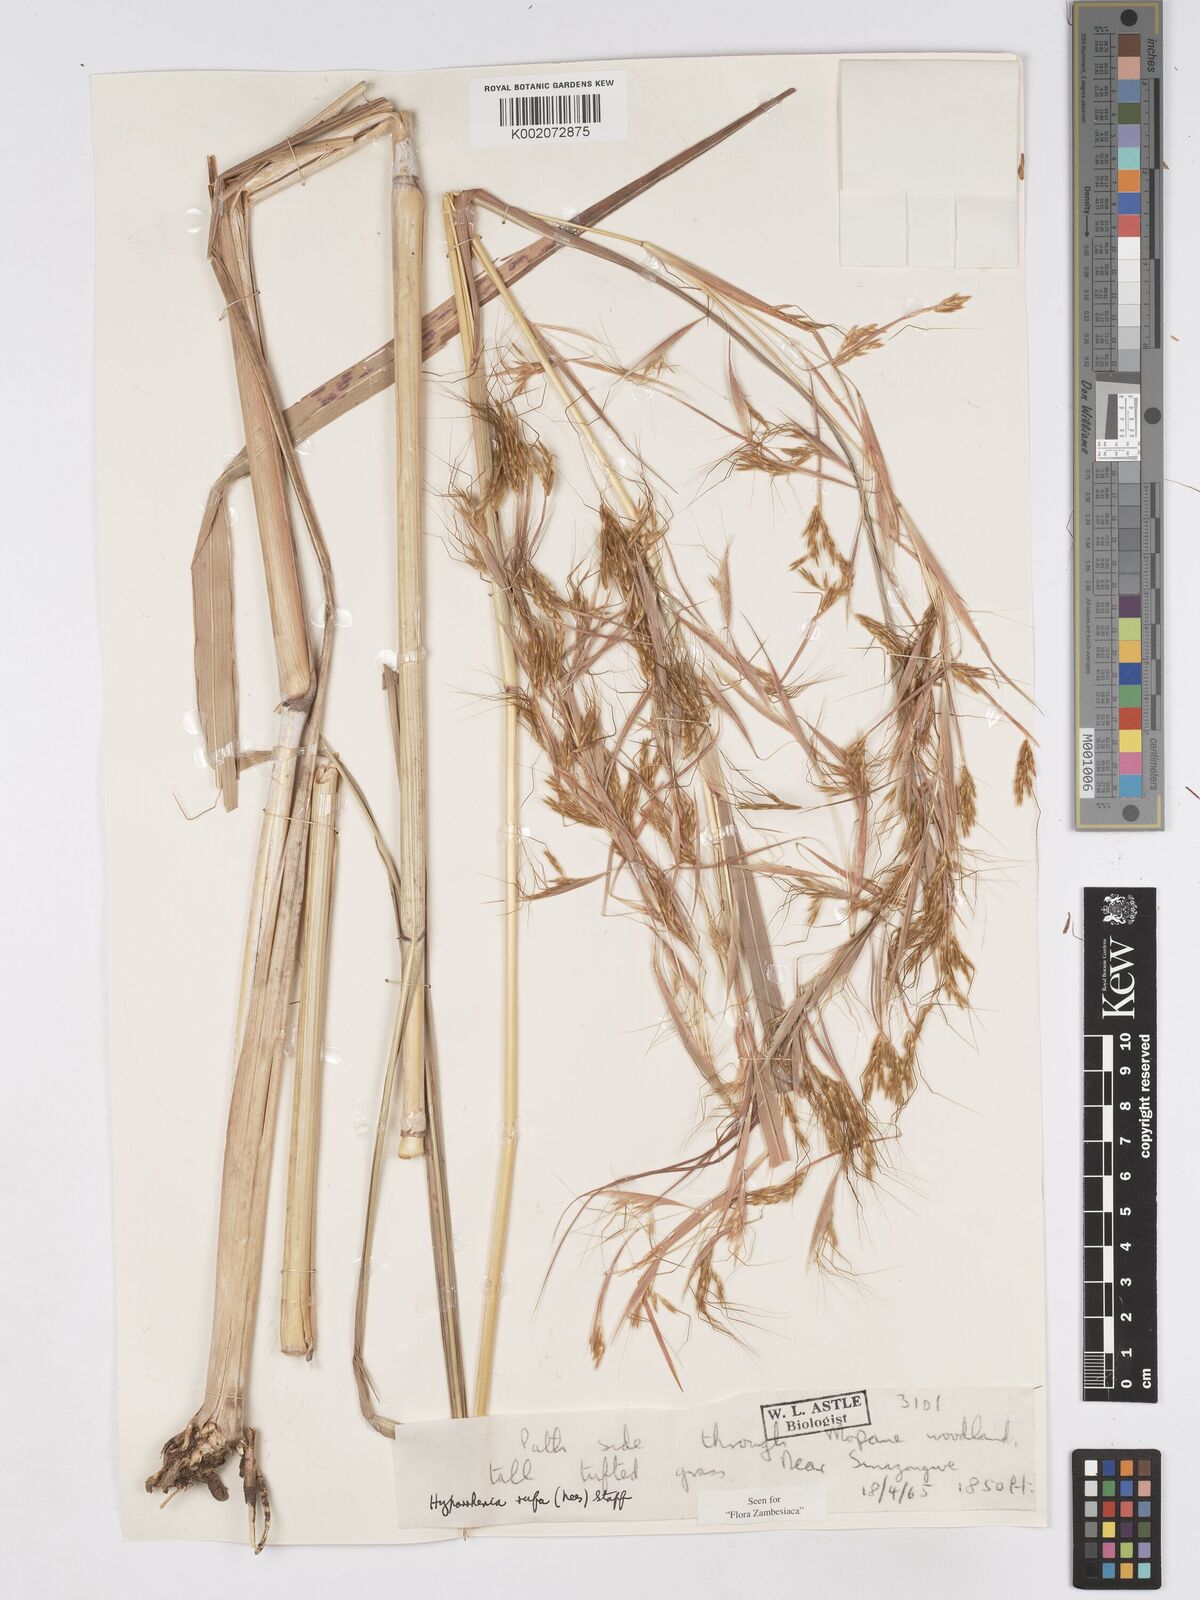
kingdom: Plantae
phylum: Tracheophyta
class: Liliopsida
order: Poales
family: Poaceae
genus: Hyparrhenia
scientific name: Hyparrhenia rufa
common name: Jaraguagrass
